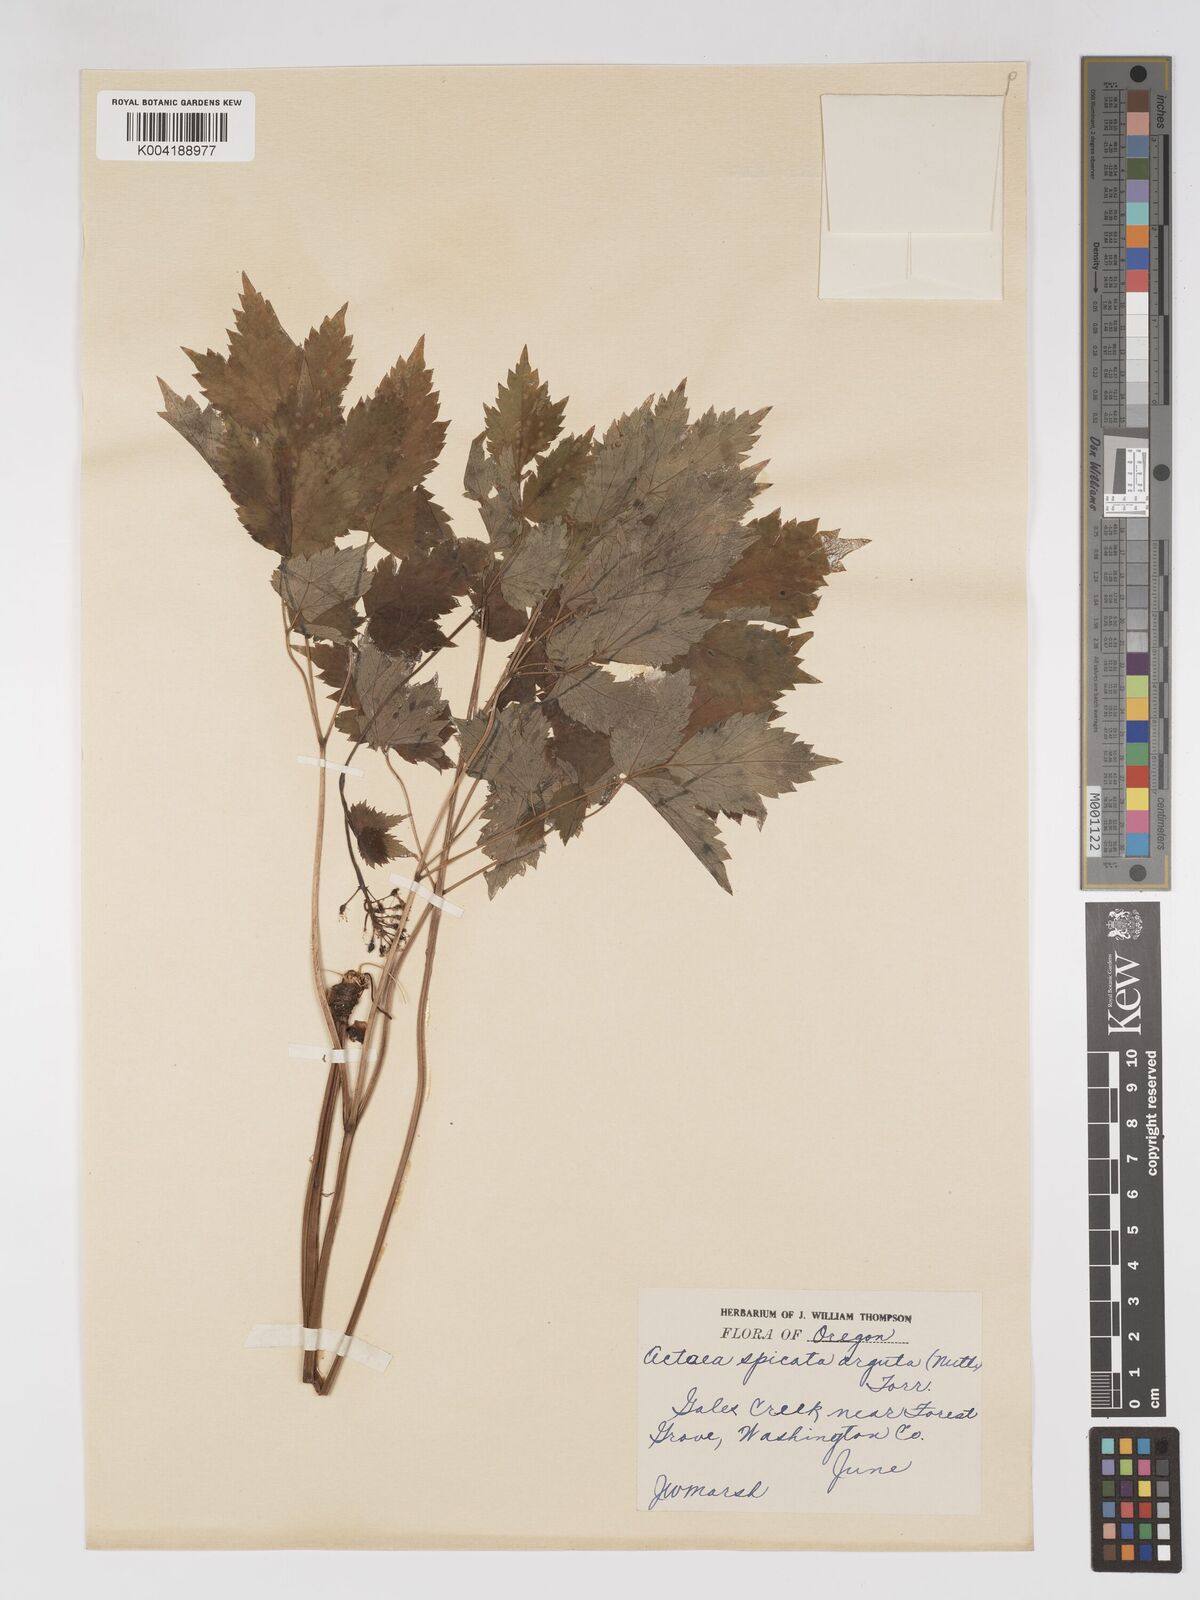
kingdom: Plantae
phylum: Tracheophyta
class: Magnoliopsida
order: Ranunculales
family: Ranunculaceae
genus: Actaea
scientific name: Actaea rubra
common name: Red baneberry
